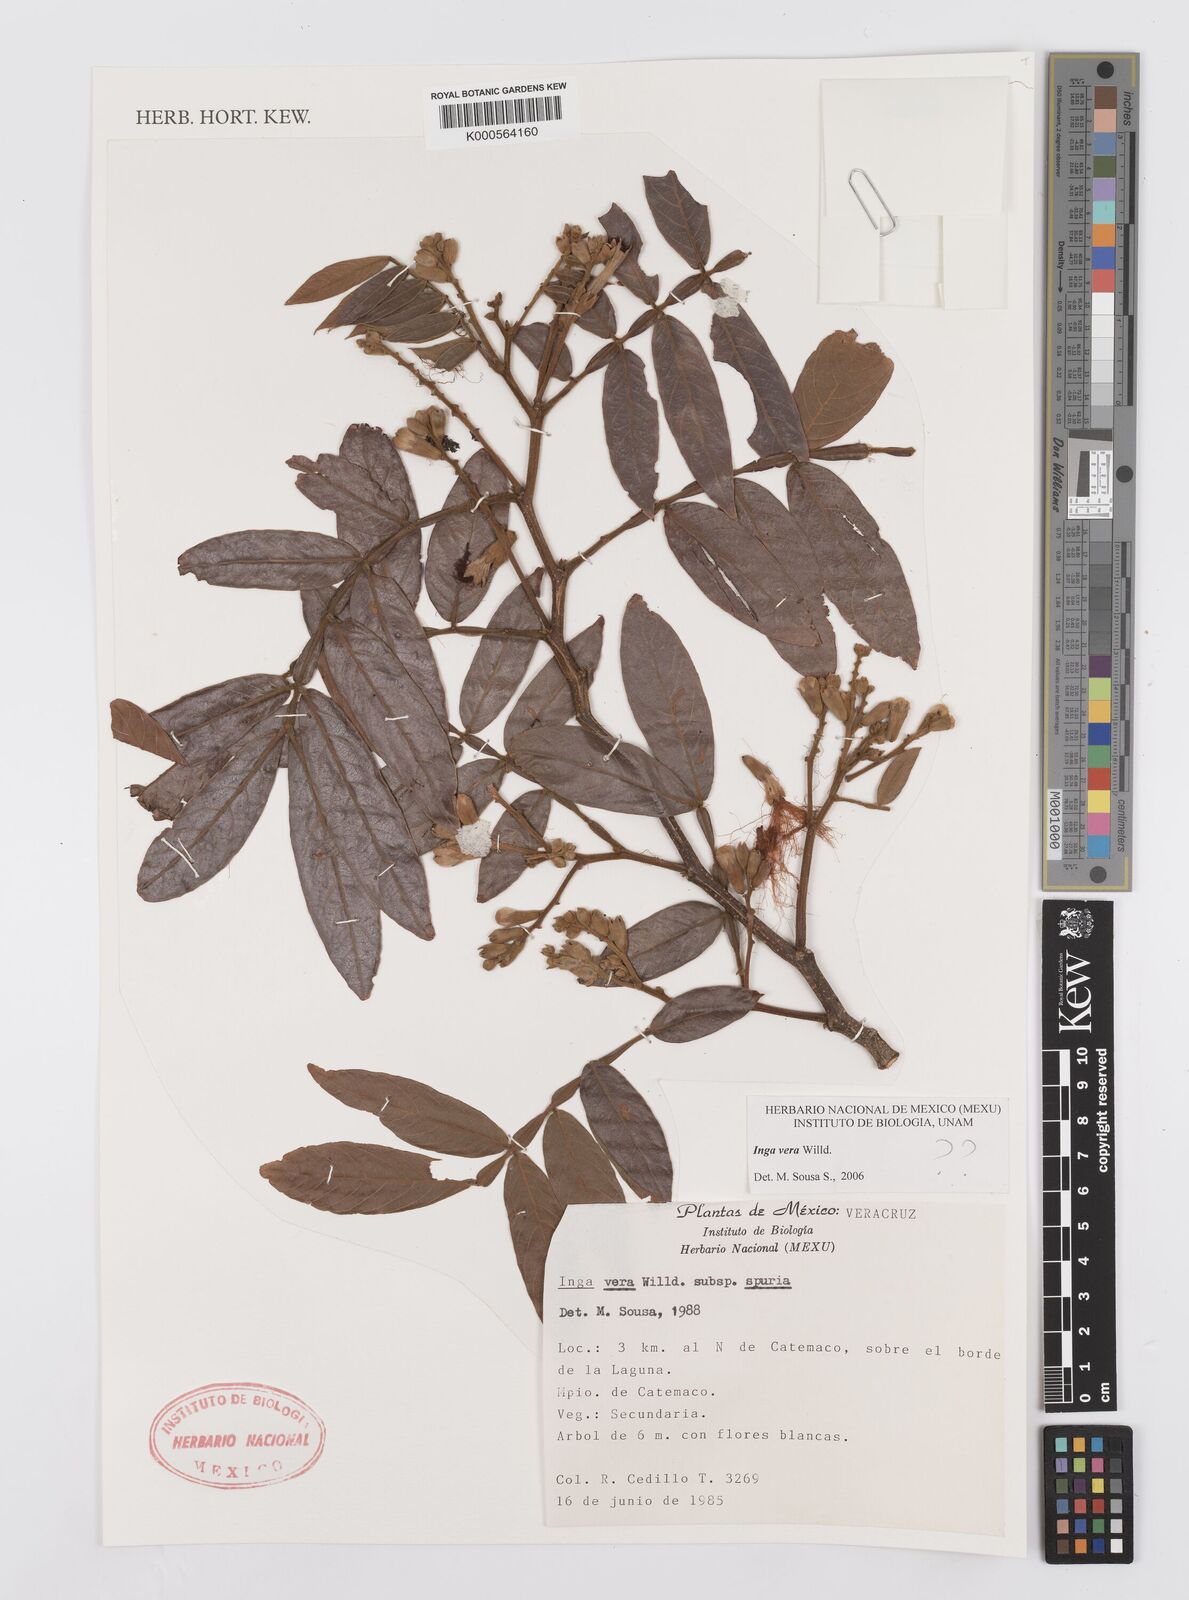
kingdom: Plantae
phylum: Tracheophyta
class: Magnoliopsida
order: Fabales
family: Fabaceae
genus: Inga
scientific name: Inga vera
